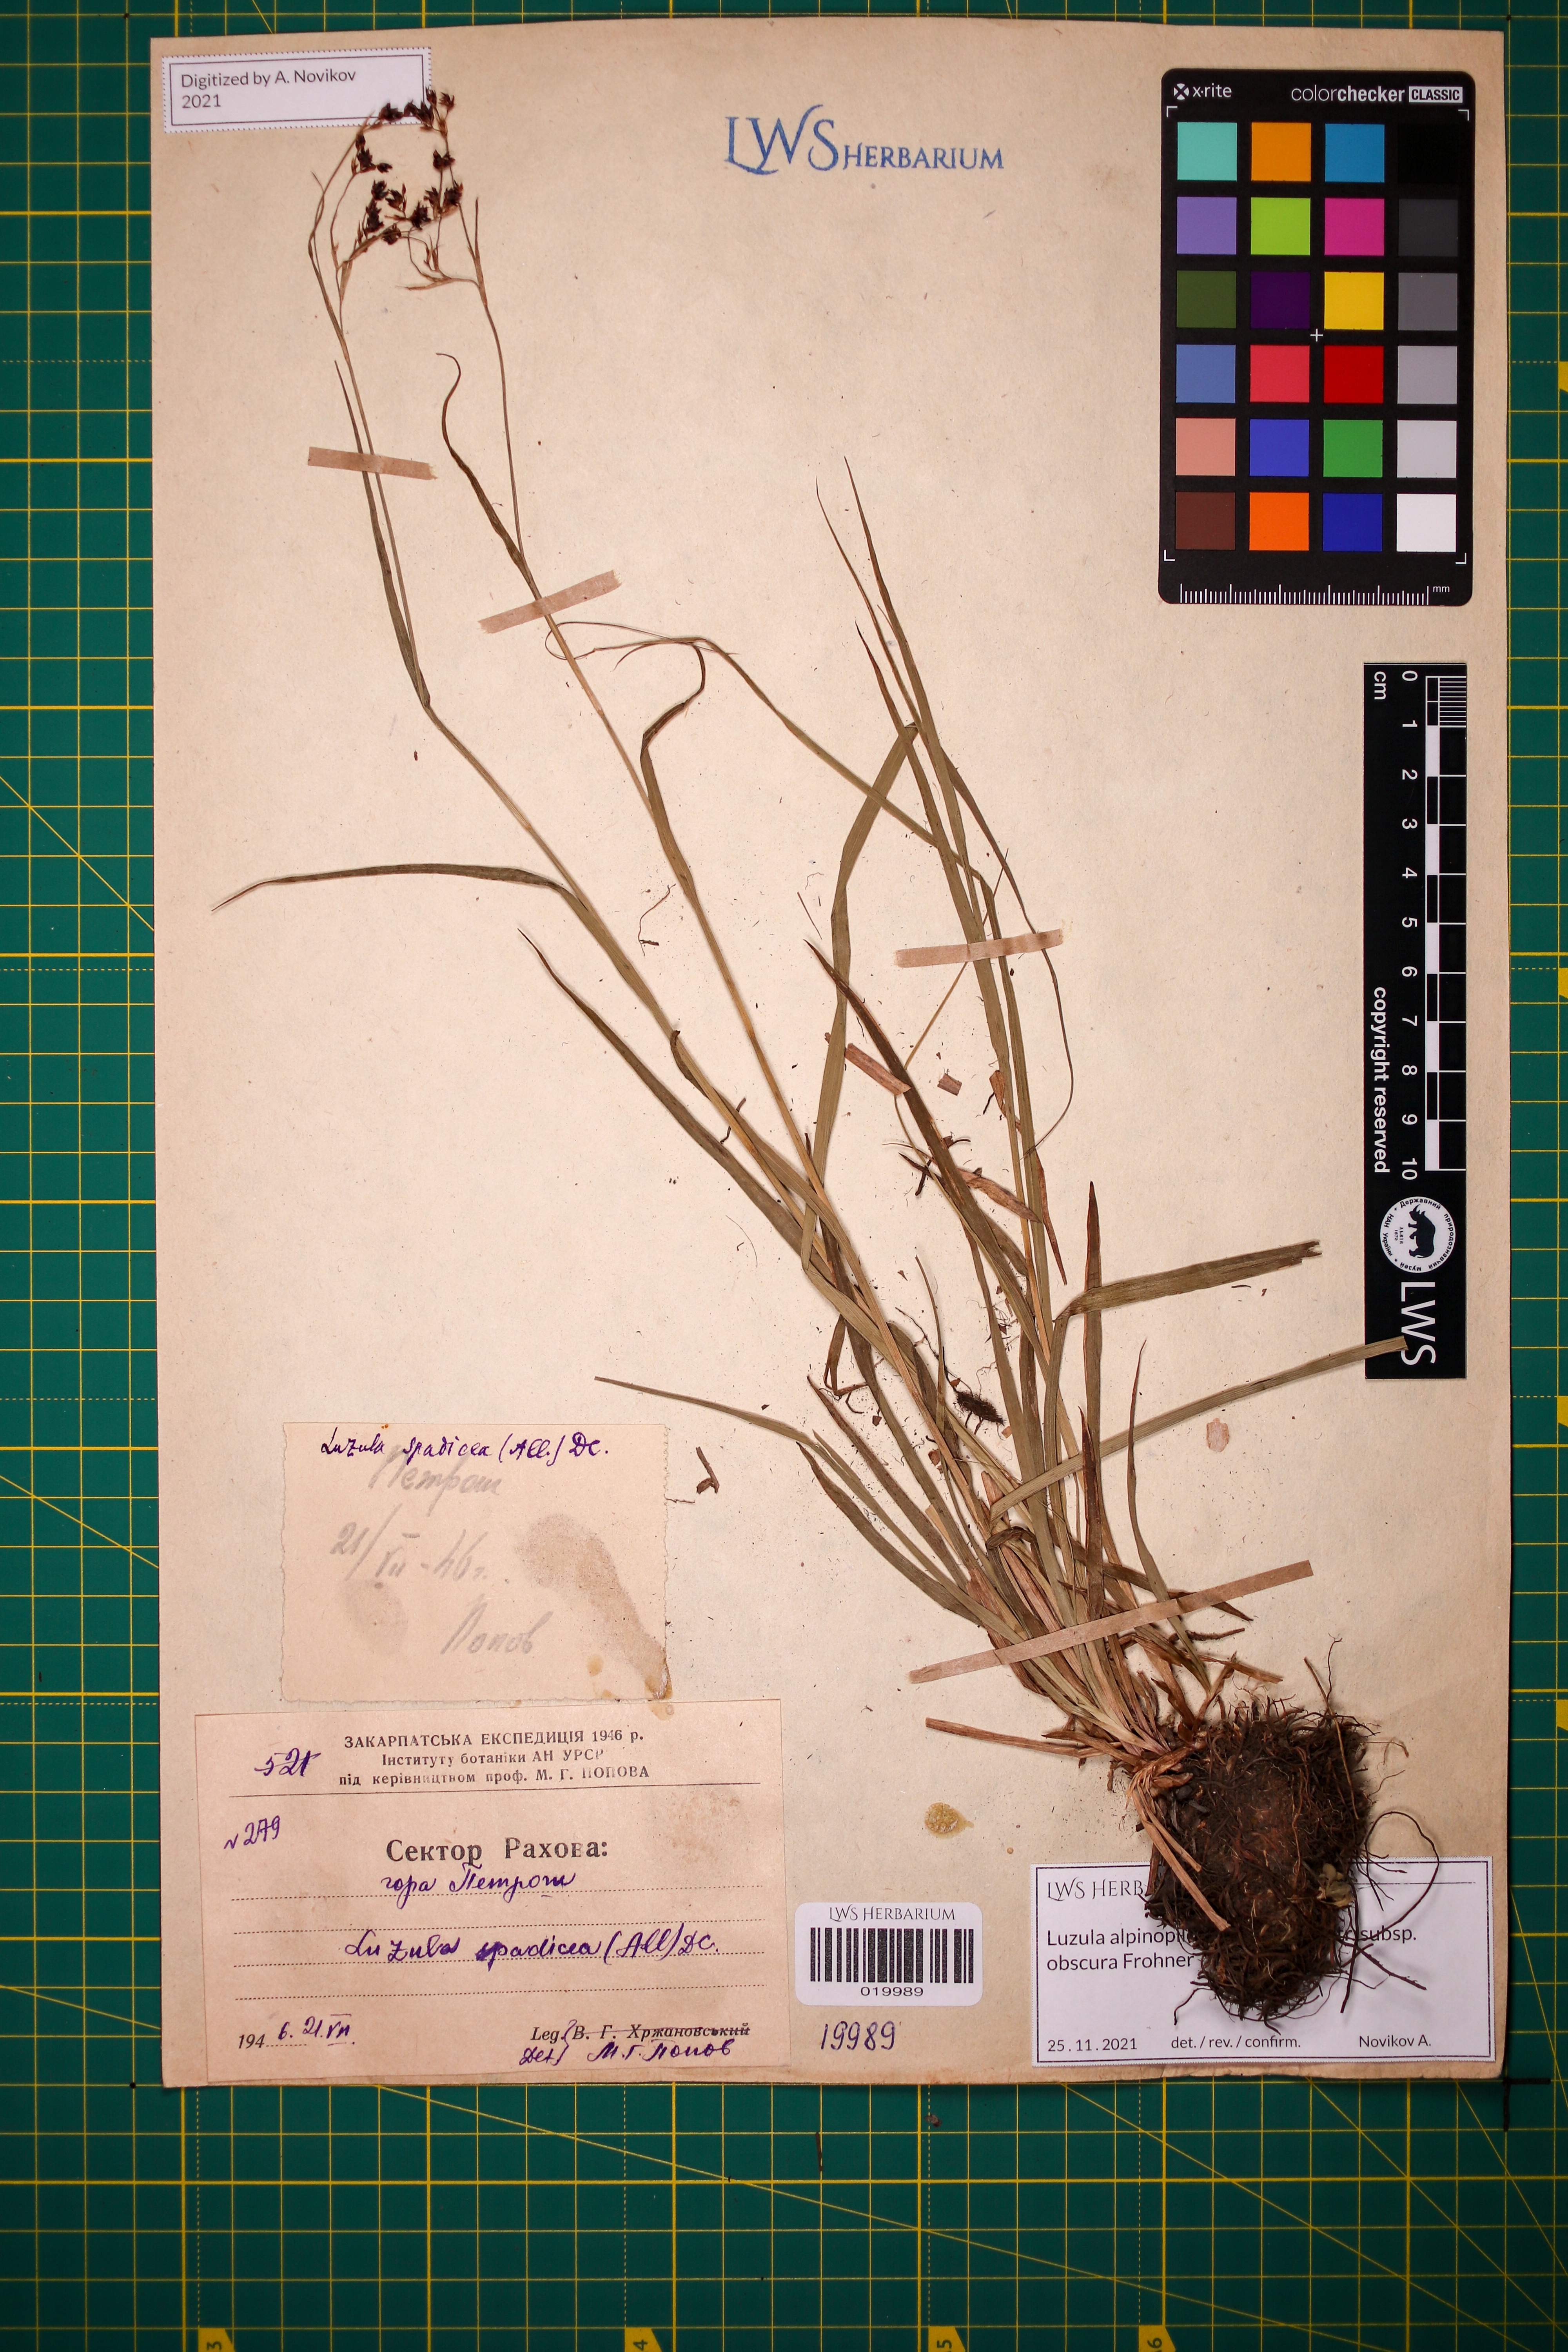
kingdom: Plantae
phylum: Tracheophyta
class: Liliopsida
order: Poales
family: Juncaceae
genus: Luzula
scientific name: Luzula alpinopilosa
